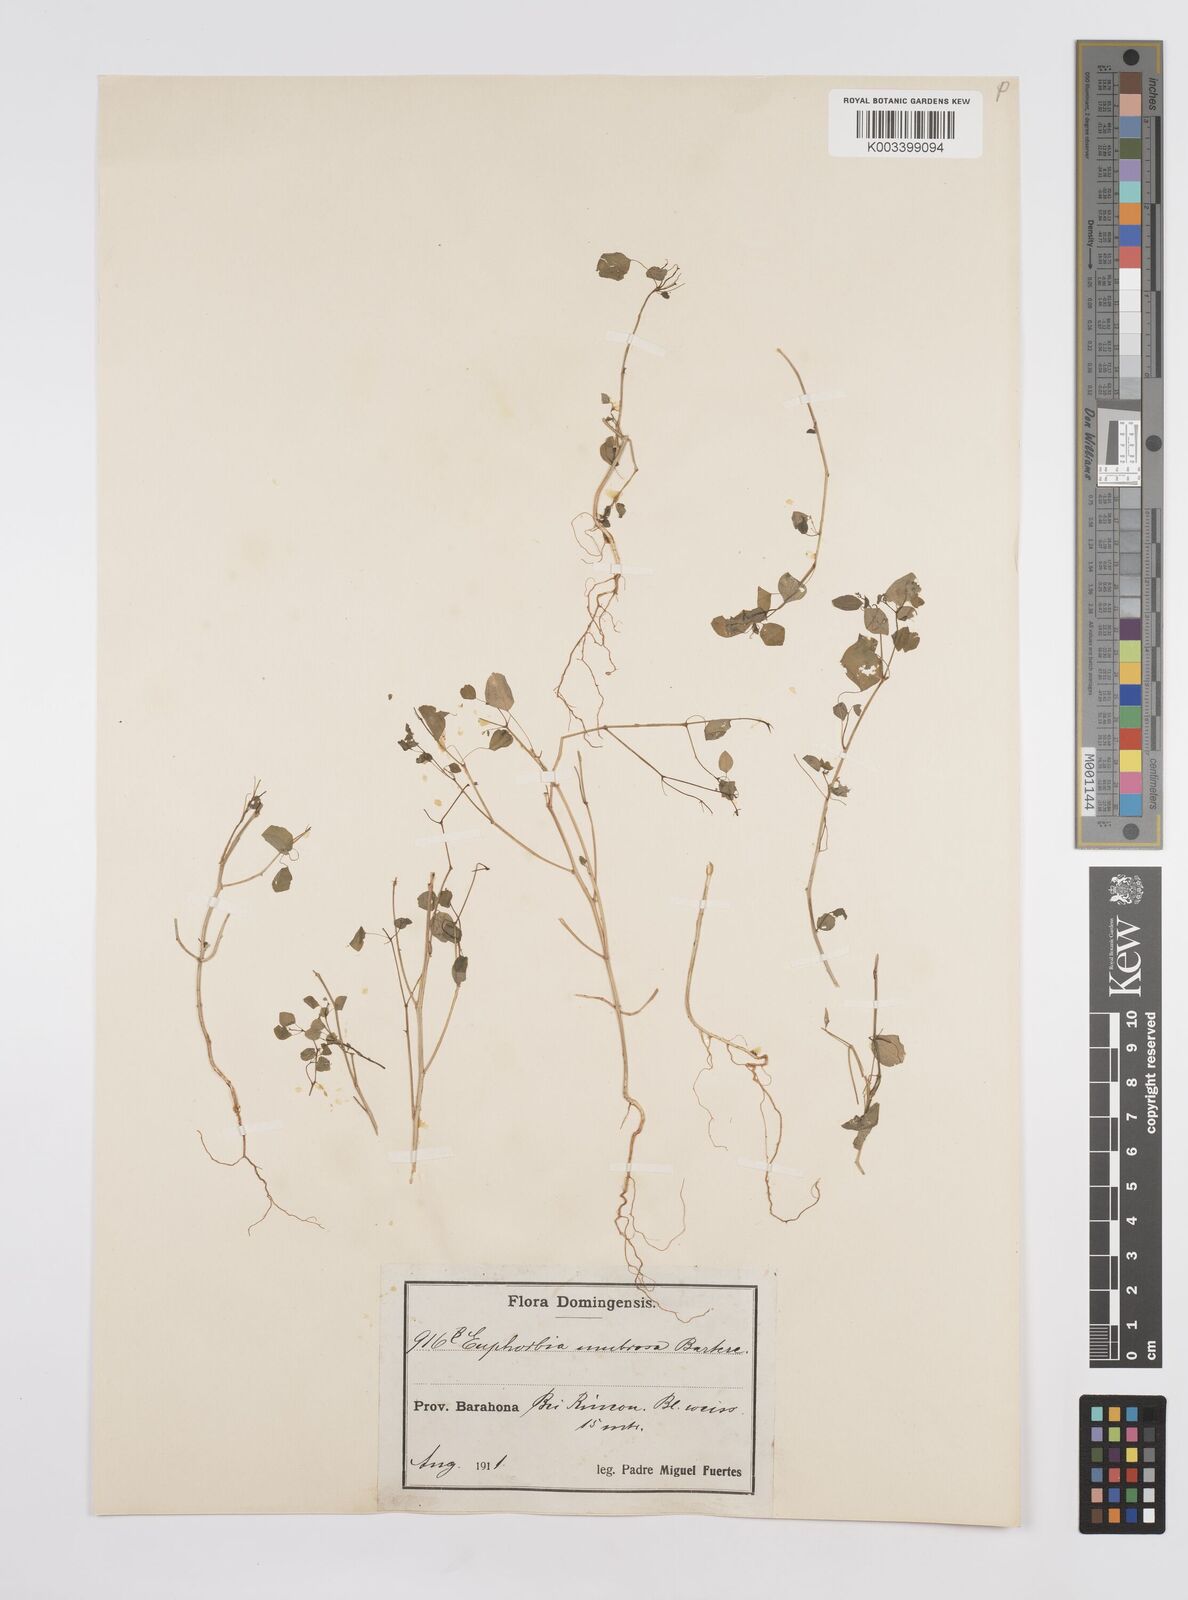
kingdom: Plantae
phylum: Tracheophyta
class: Magnoliopsida
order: Malpighiales
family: Euphorbiaceae
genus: Euphorbia
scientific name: Euphorbia cumbrae
